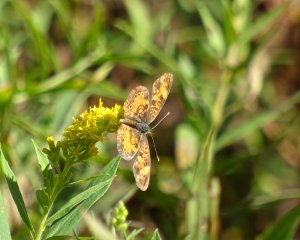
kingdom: Animalia
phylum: Arthropoda
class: Insecta
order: Lepidoptera
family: Nymphalidae
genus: Phyciodes
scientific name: Phyciodes tharos
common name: Northern Crescent
